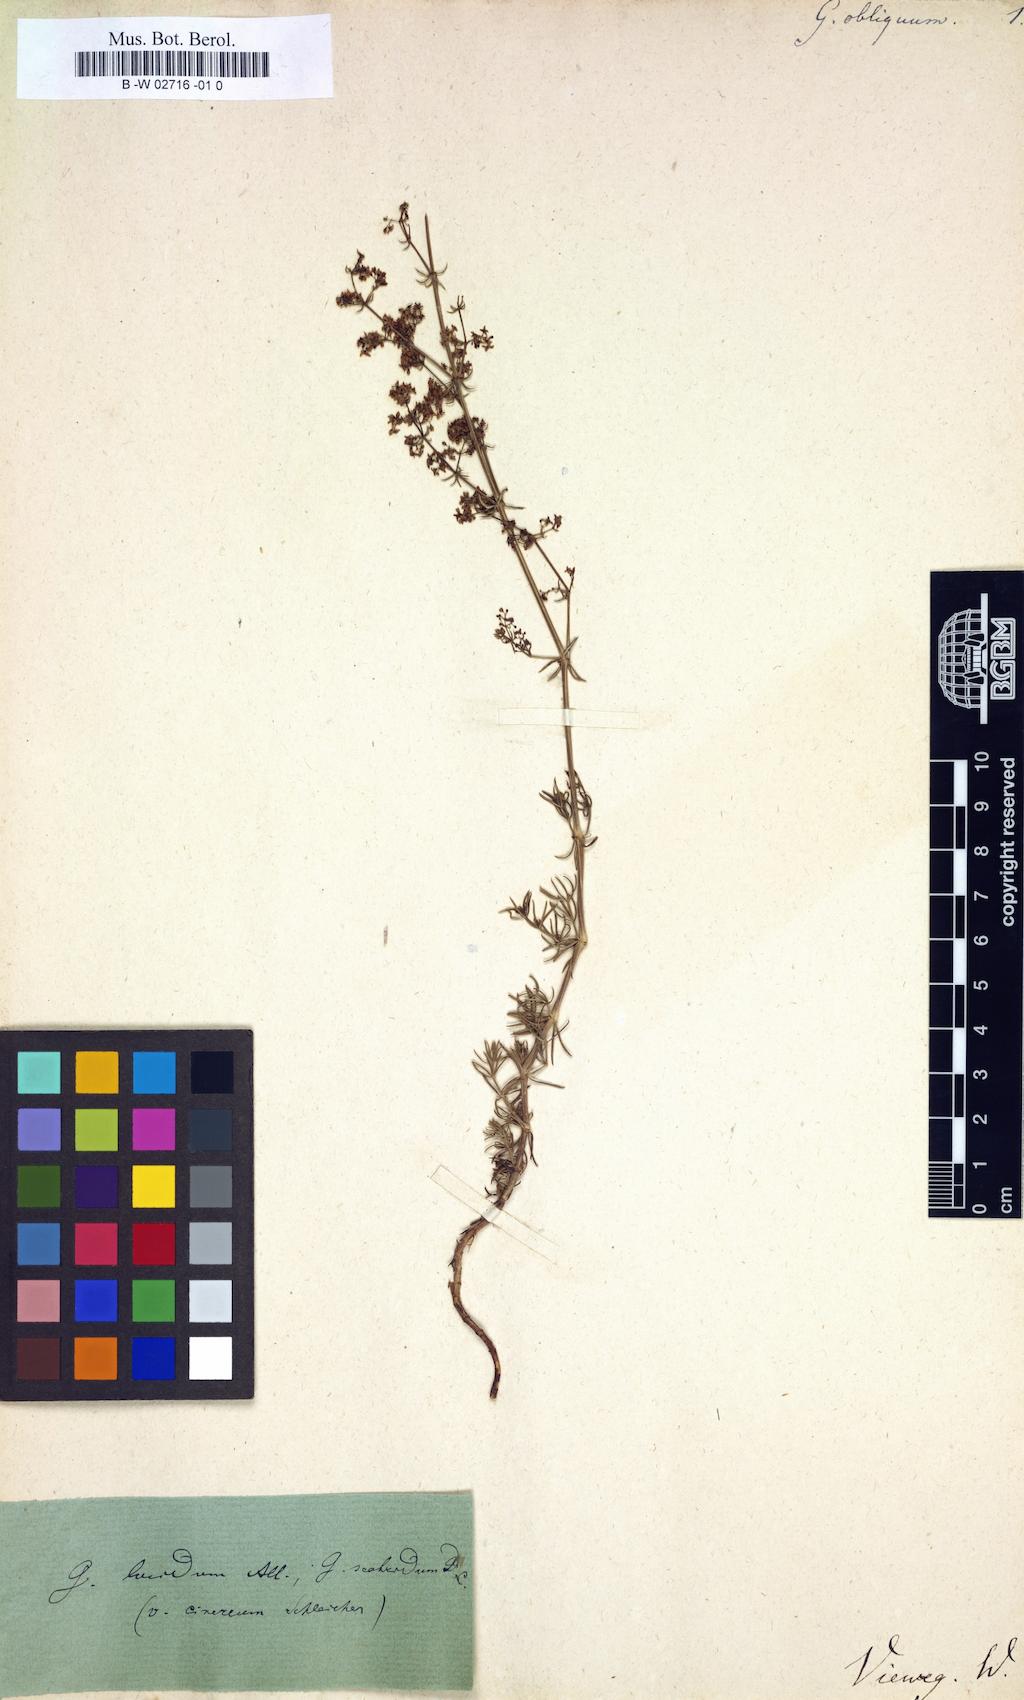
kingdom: Plantae
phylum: Tracheophyta
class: Magnoliopsida
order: Gentianales
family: Rubiaceae
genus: Galium
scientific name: Galium obliquum
